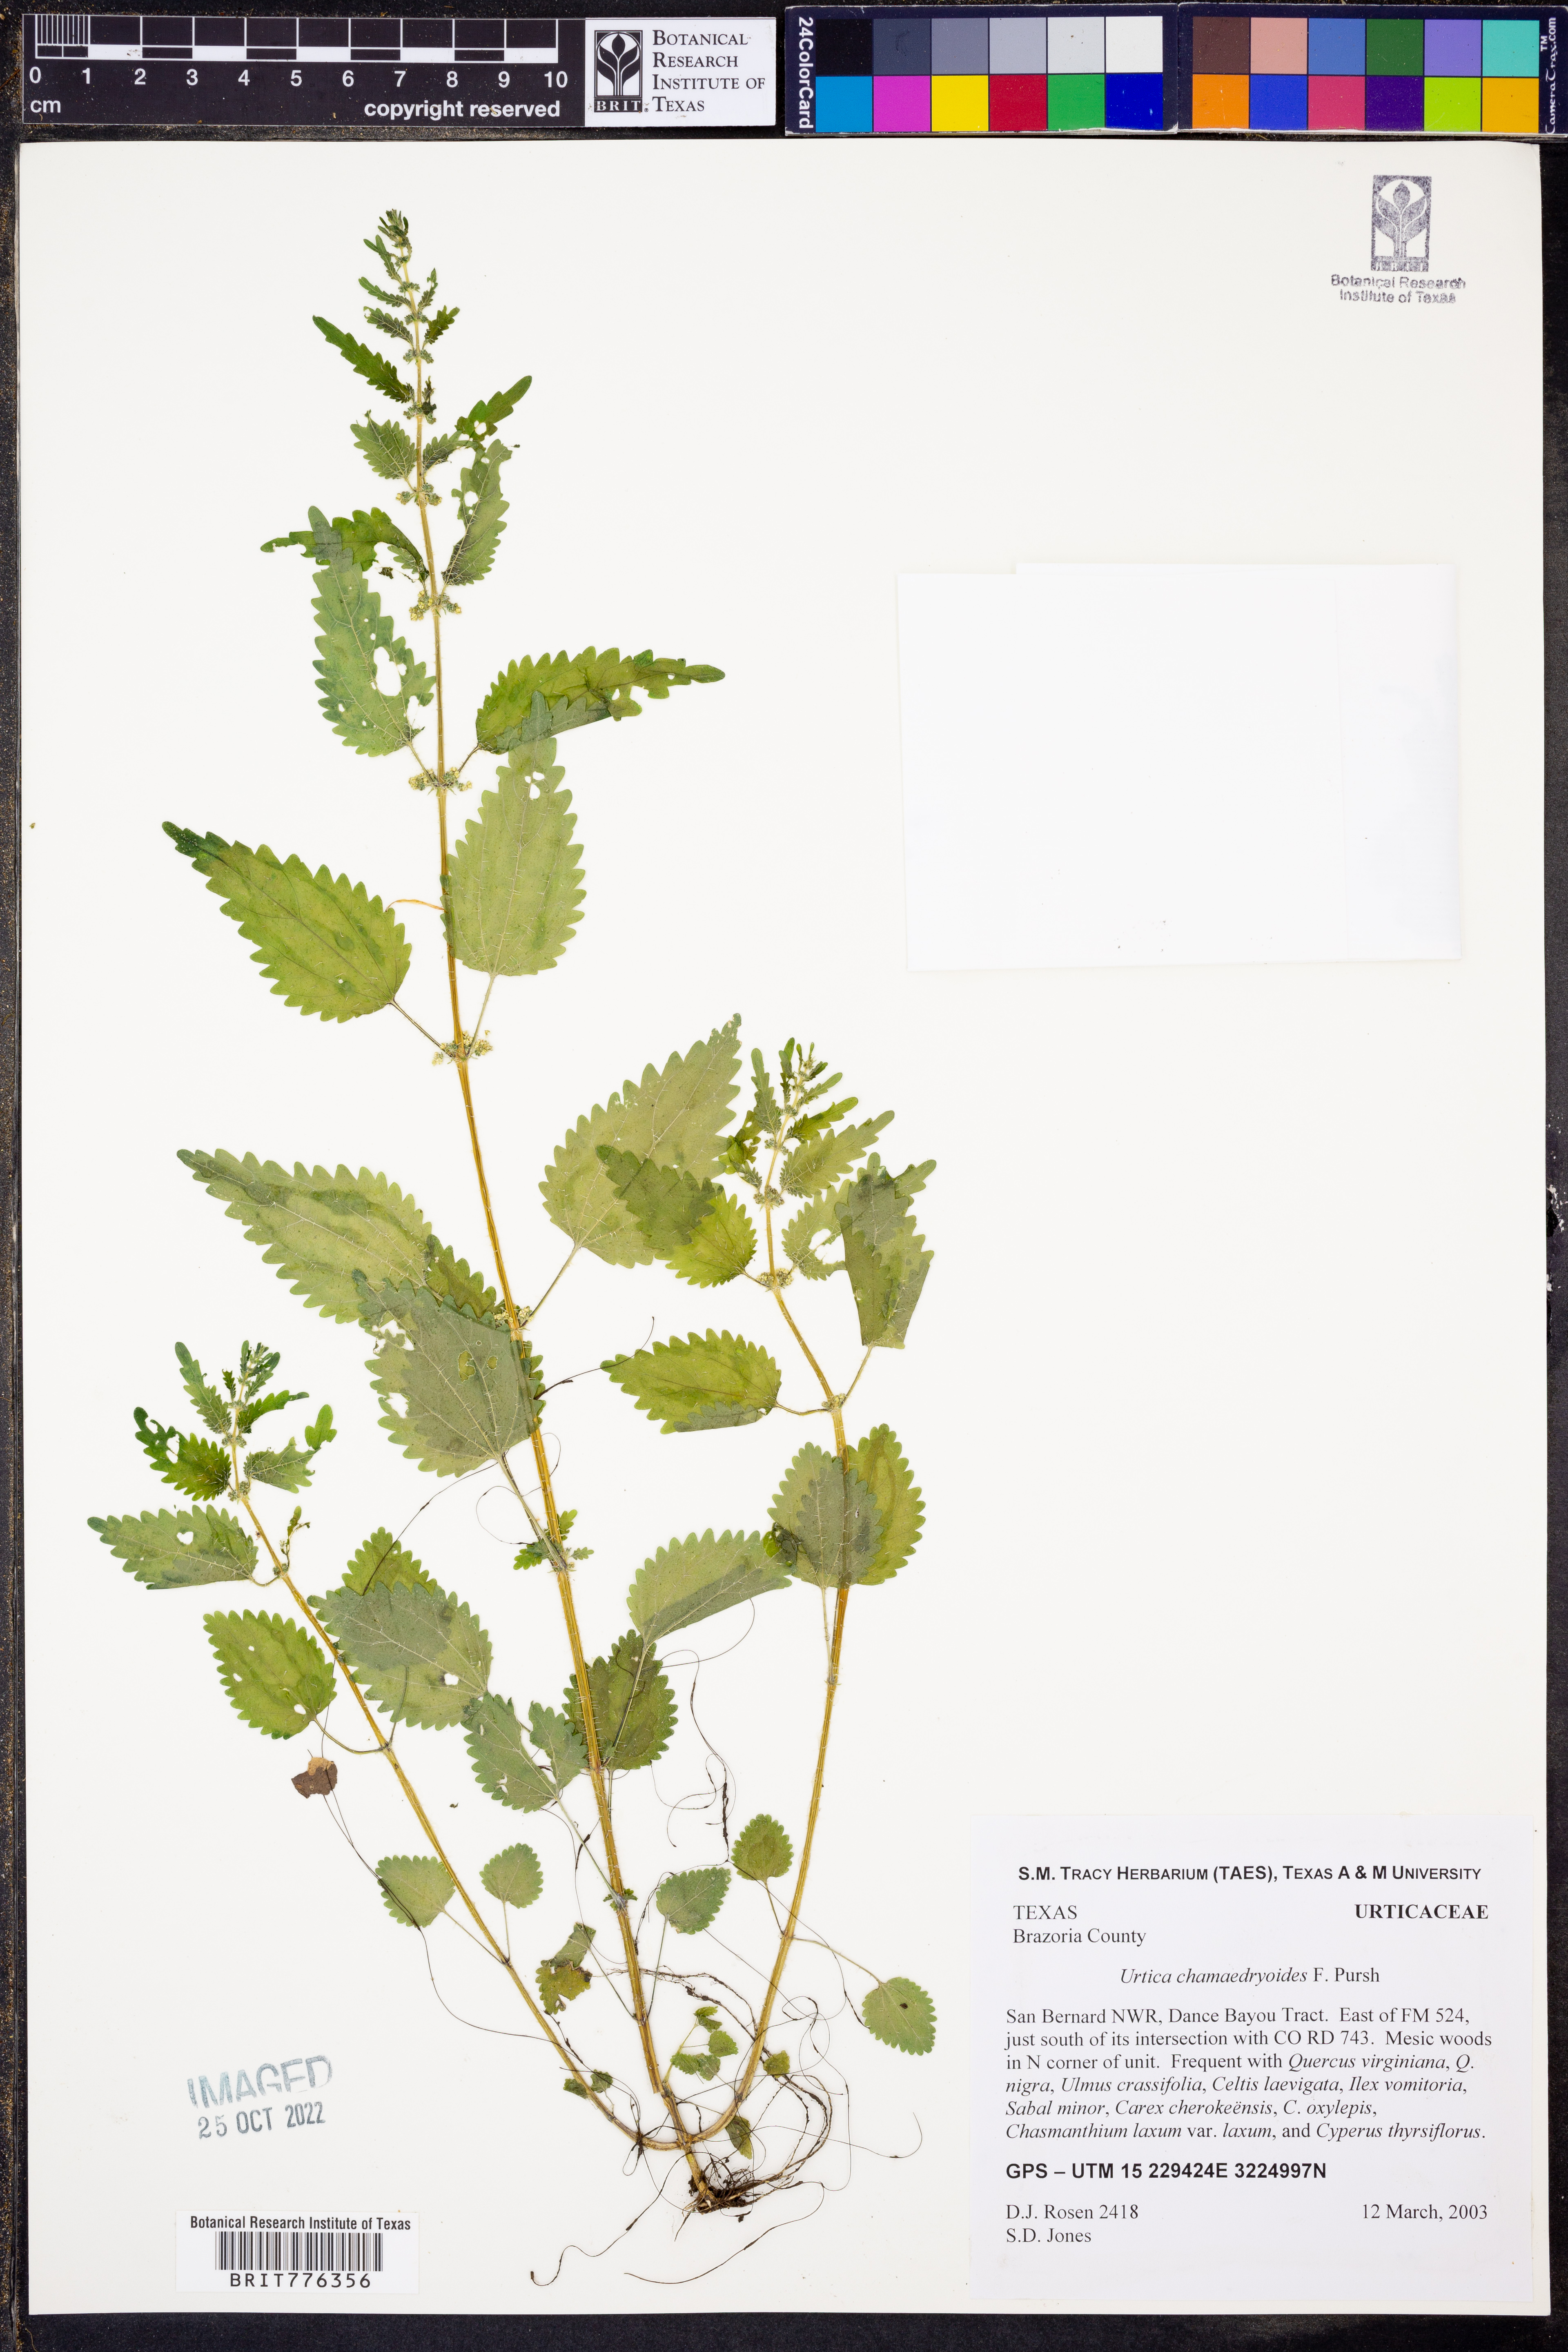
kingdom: Plantae
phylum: Tracheophyta
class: Magnoliopsida
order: Rosales
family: Urticaceae
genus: Urtica
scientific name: Urtica chamaedryoides
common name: Heart-leaf nettle
